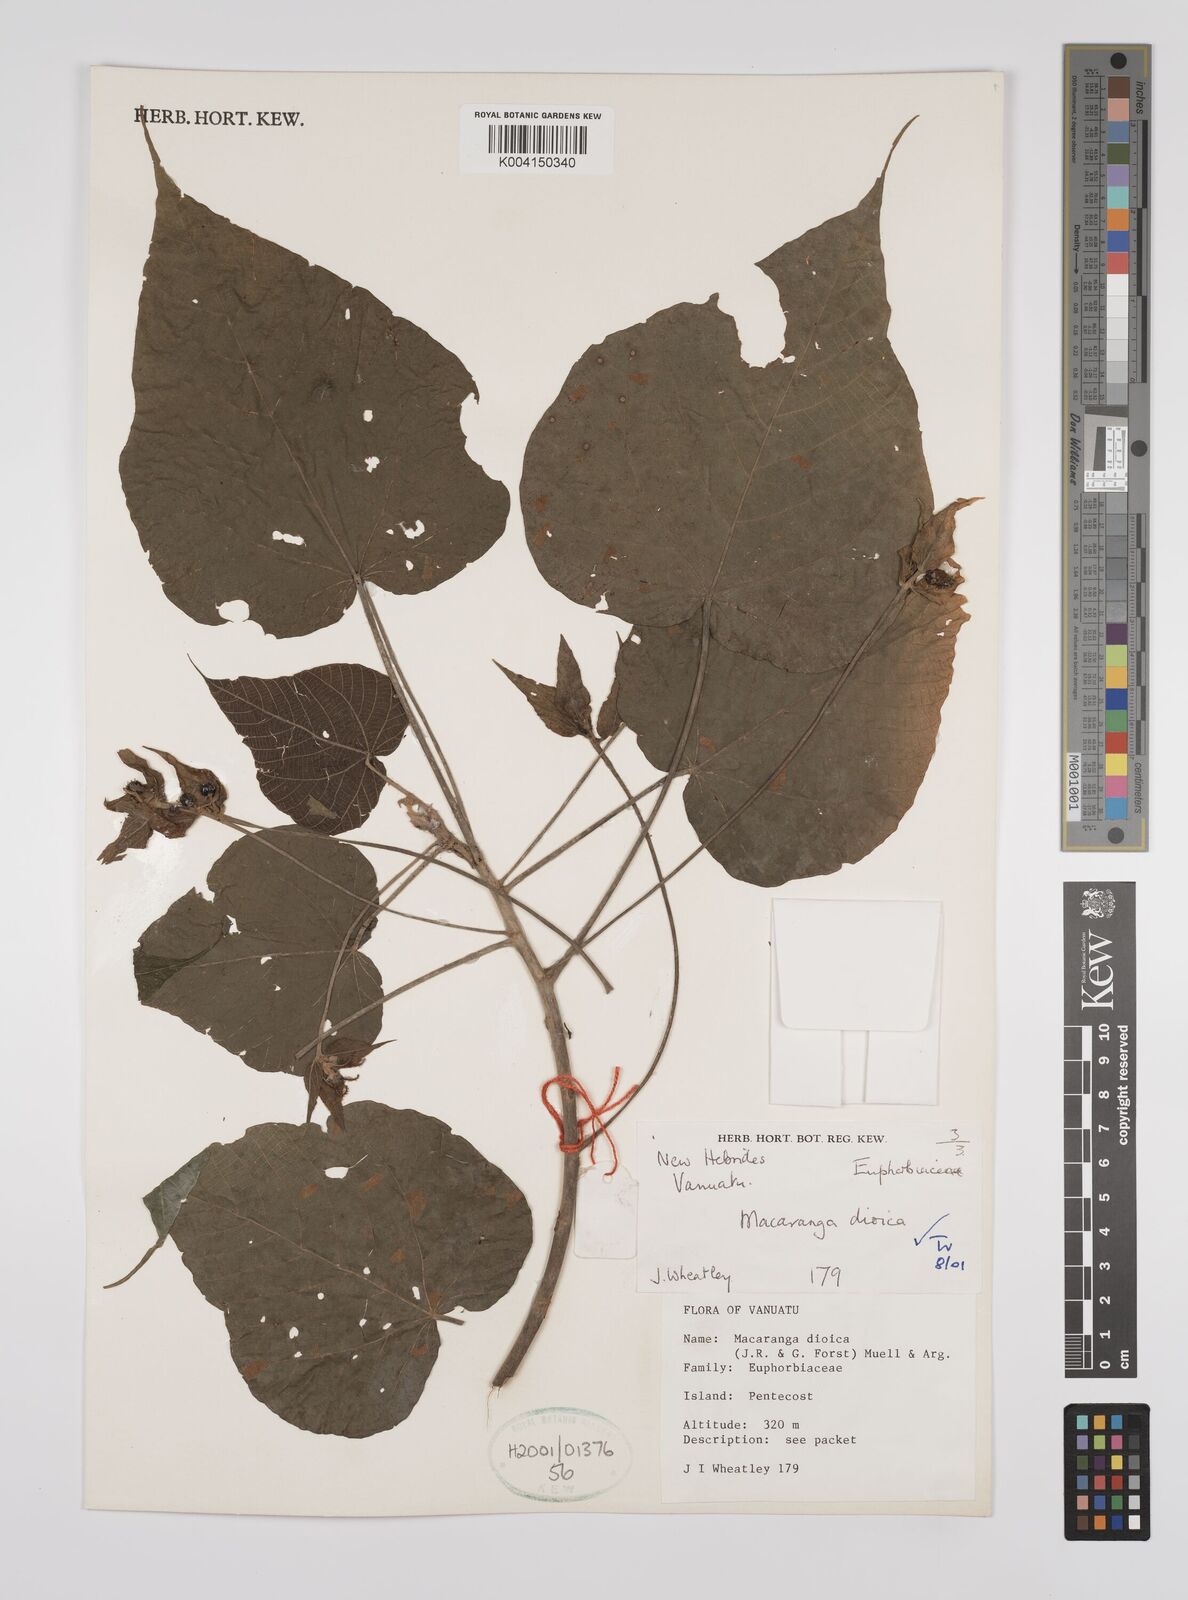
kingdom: Plantae
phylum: Tracheophyta
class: Magnoliopsida
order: Malpighiales
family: Euphorbiaceae
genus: Macaranga
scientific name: Macaranga dioica
